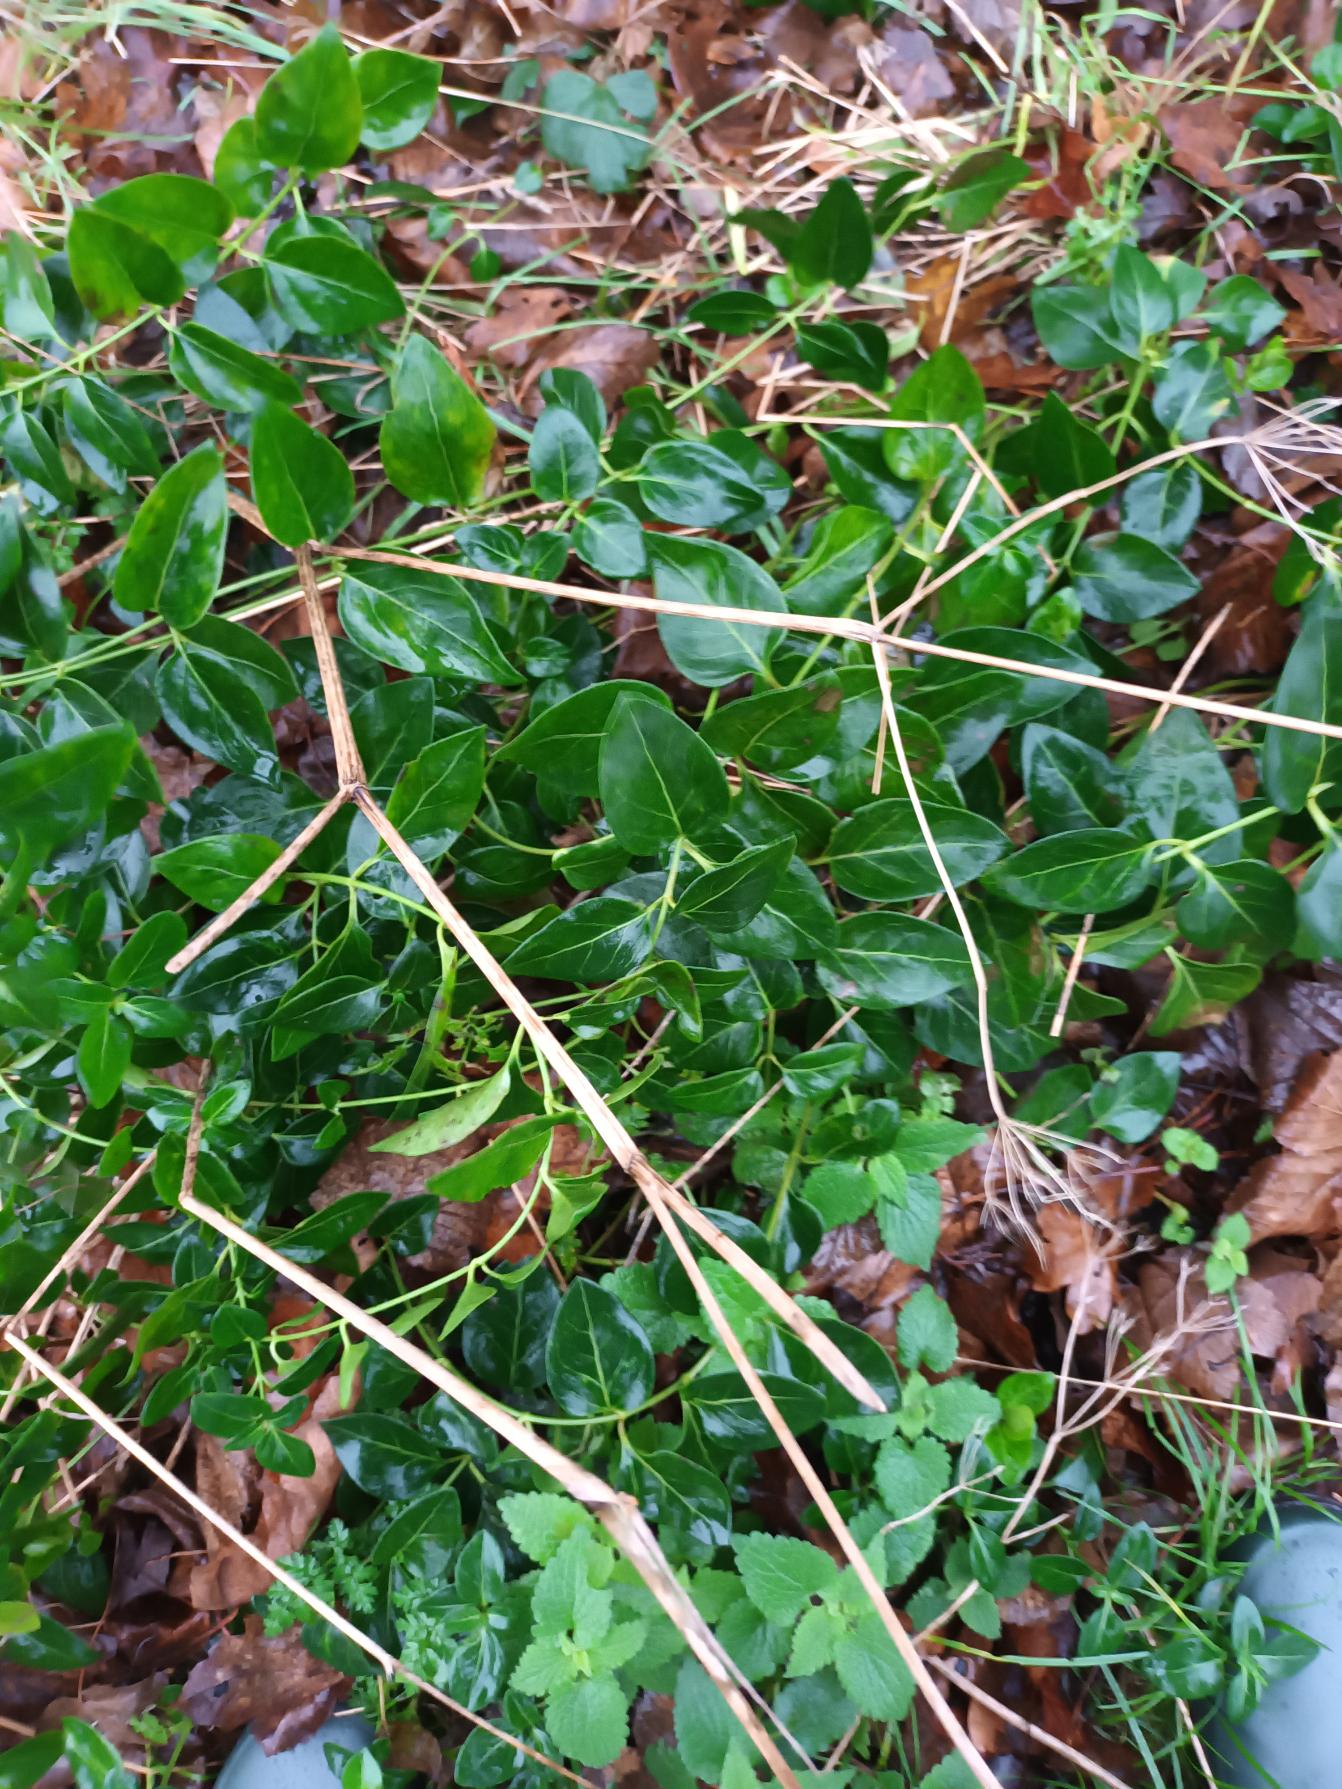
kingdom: Plantae
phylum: Tracheophyta
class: Magnoliopsida
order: Gentianales
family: Apocynaceae
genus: Vinca
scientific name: Vinca major
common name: Stor singrøn
